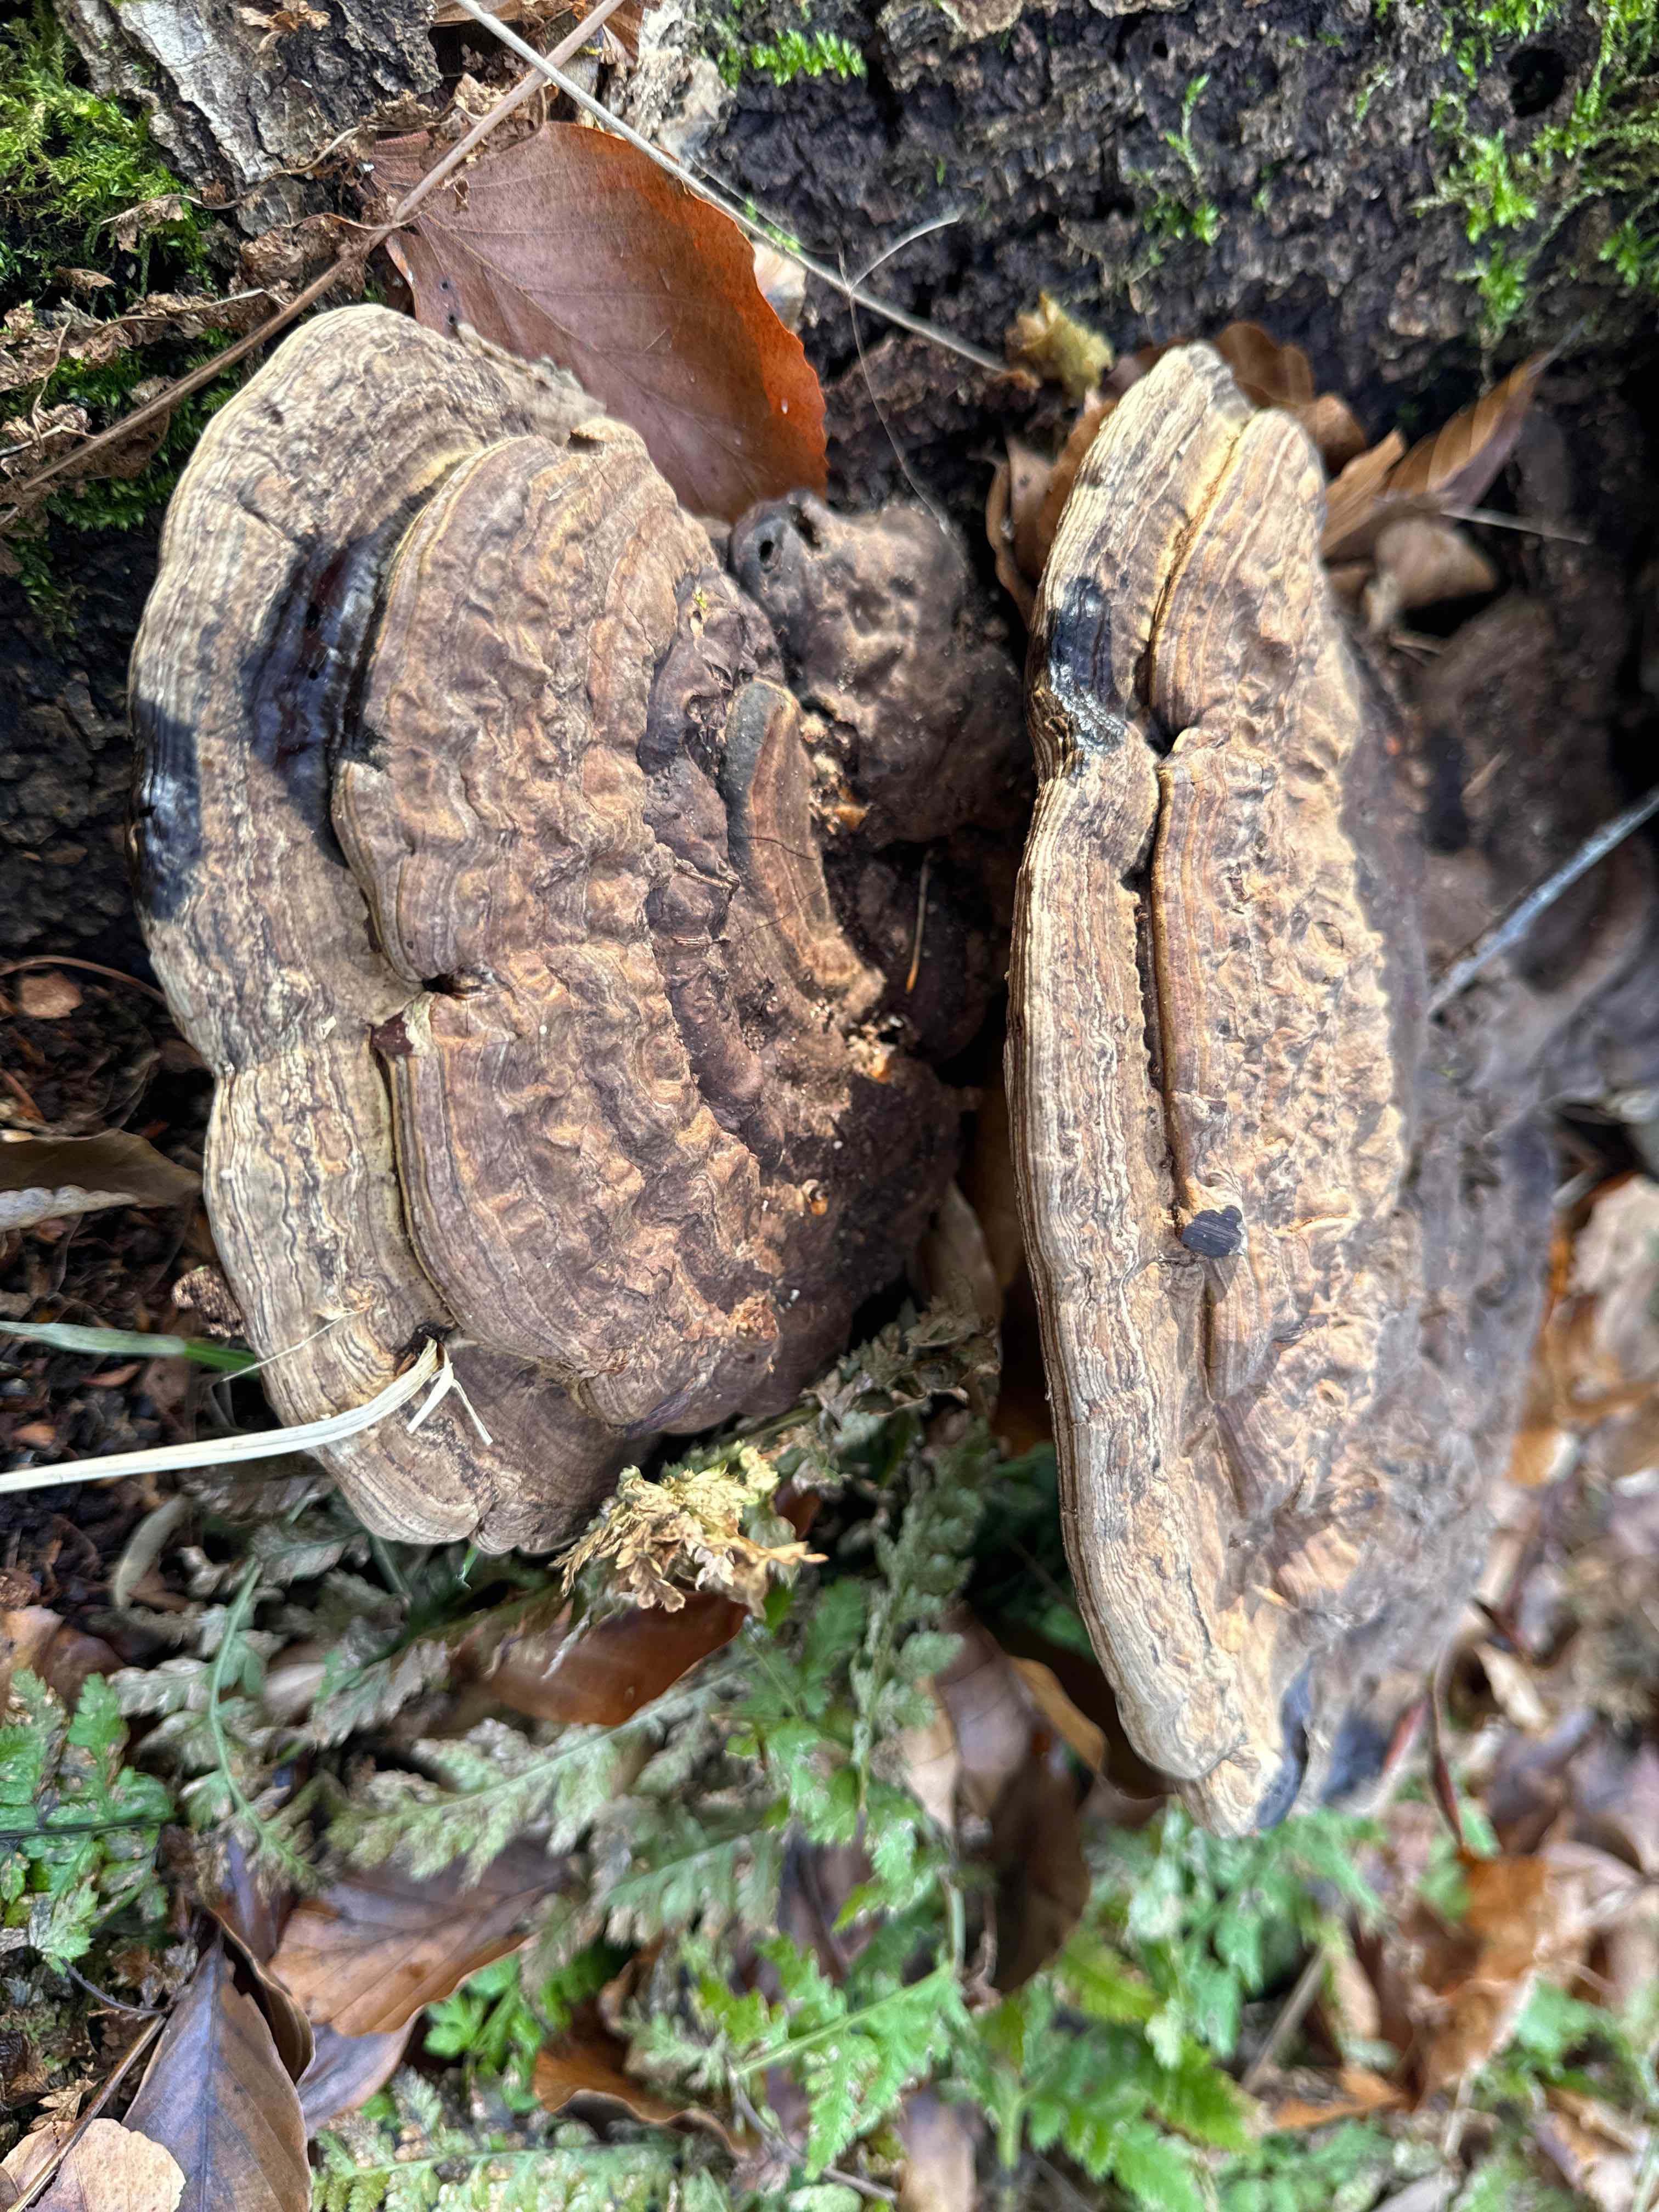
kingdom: Fungi
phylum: Basidiomycota
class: Agaricomycetes
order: Polyporales
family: Polyporaceae
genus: Ganoderma
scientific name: Ganoderma applanatum
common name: flad lakporesvamp
